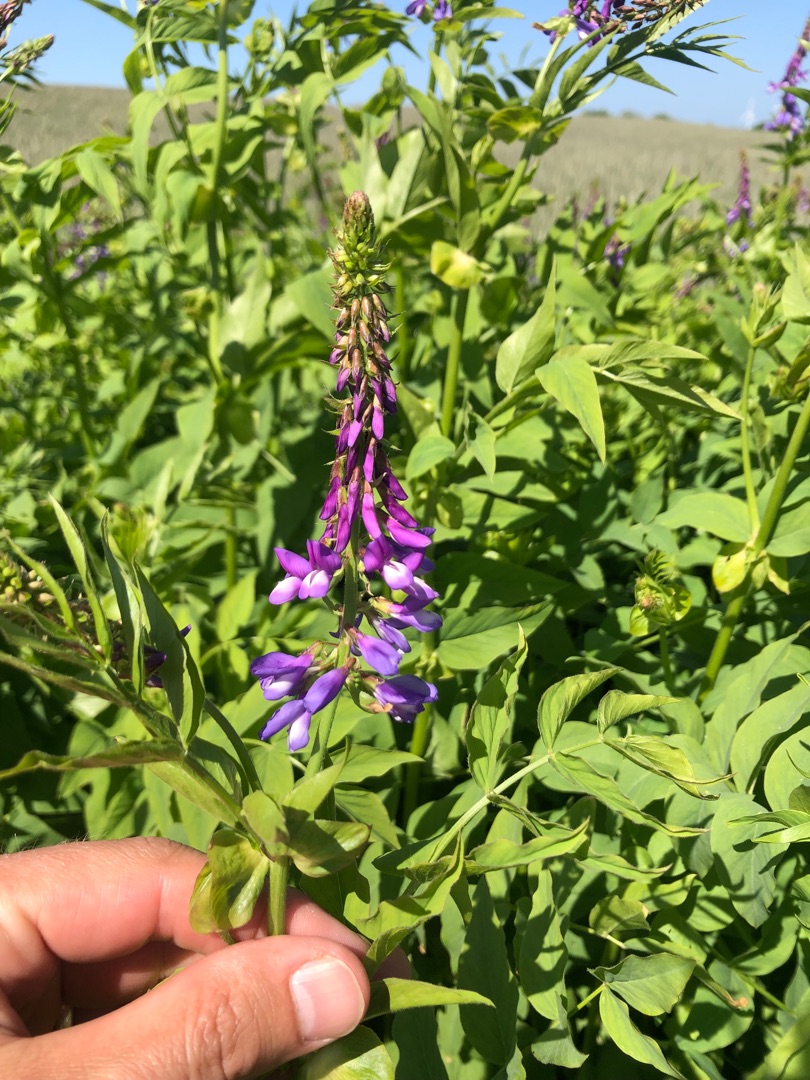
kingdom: Plantae
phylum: Tracheophyta
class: Magnoliopsida
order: Fabales
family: Fabaceae
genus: Galega
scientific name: Galega orientalis
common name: Blå stregbælg
